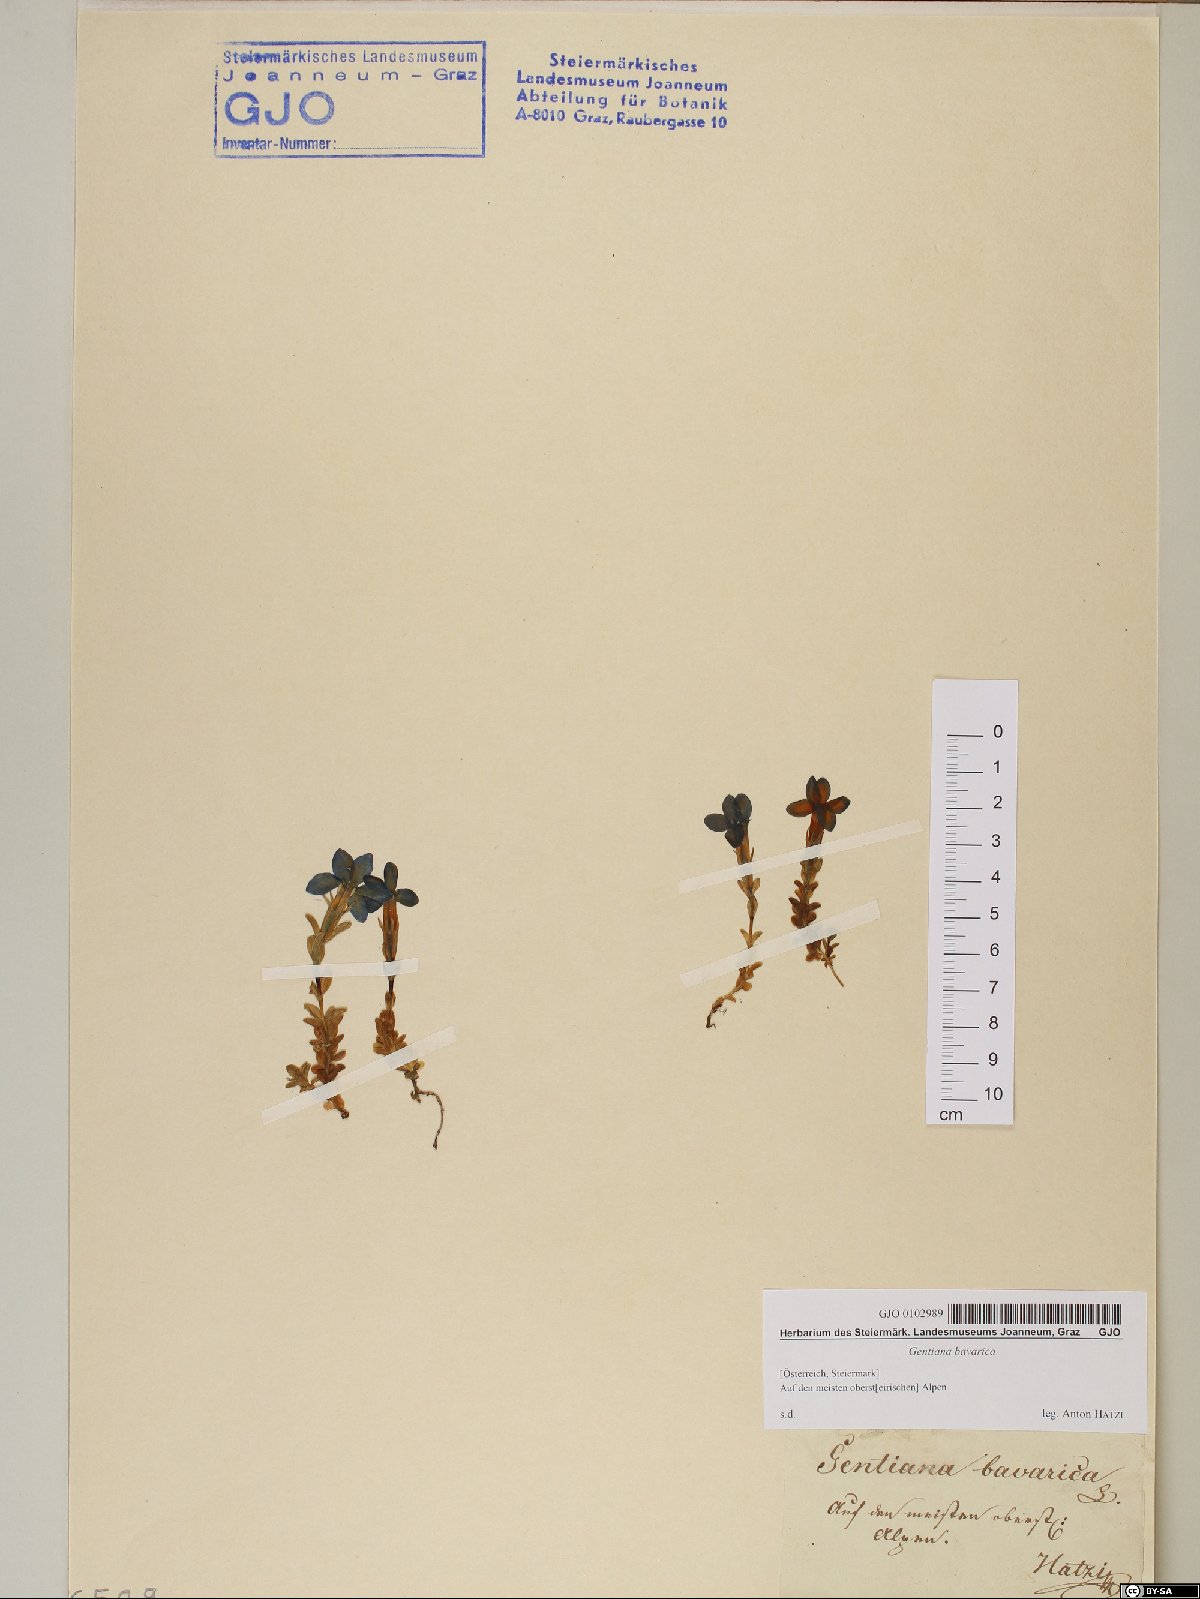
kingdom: Plantae
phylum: Tracheophyta
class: Magnoliopsida
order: Gentianales
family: Gentianaceae
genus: Gentiana
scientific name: Gentiana bavarica
